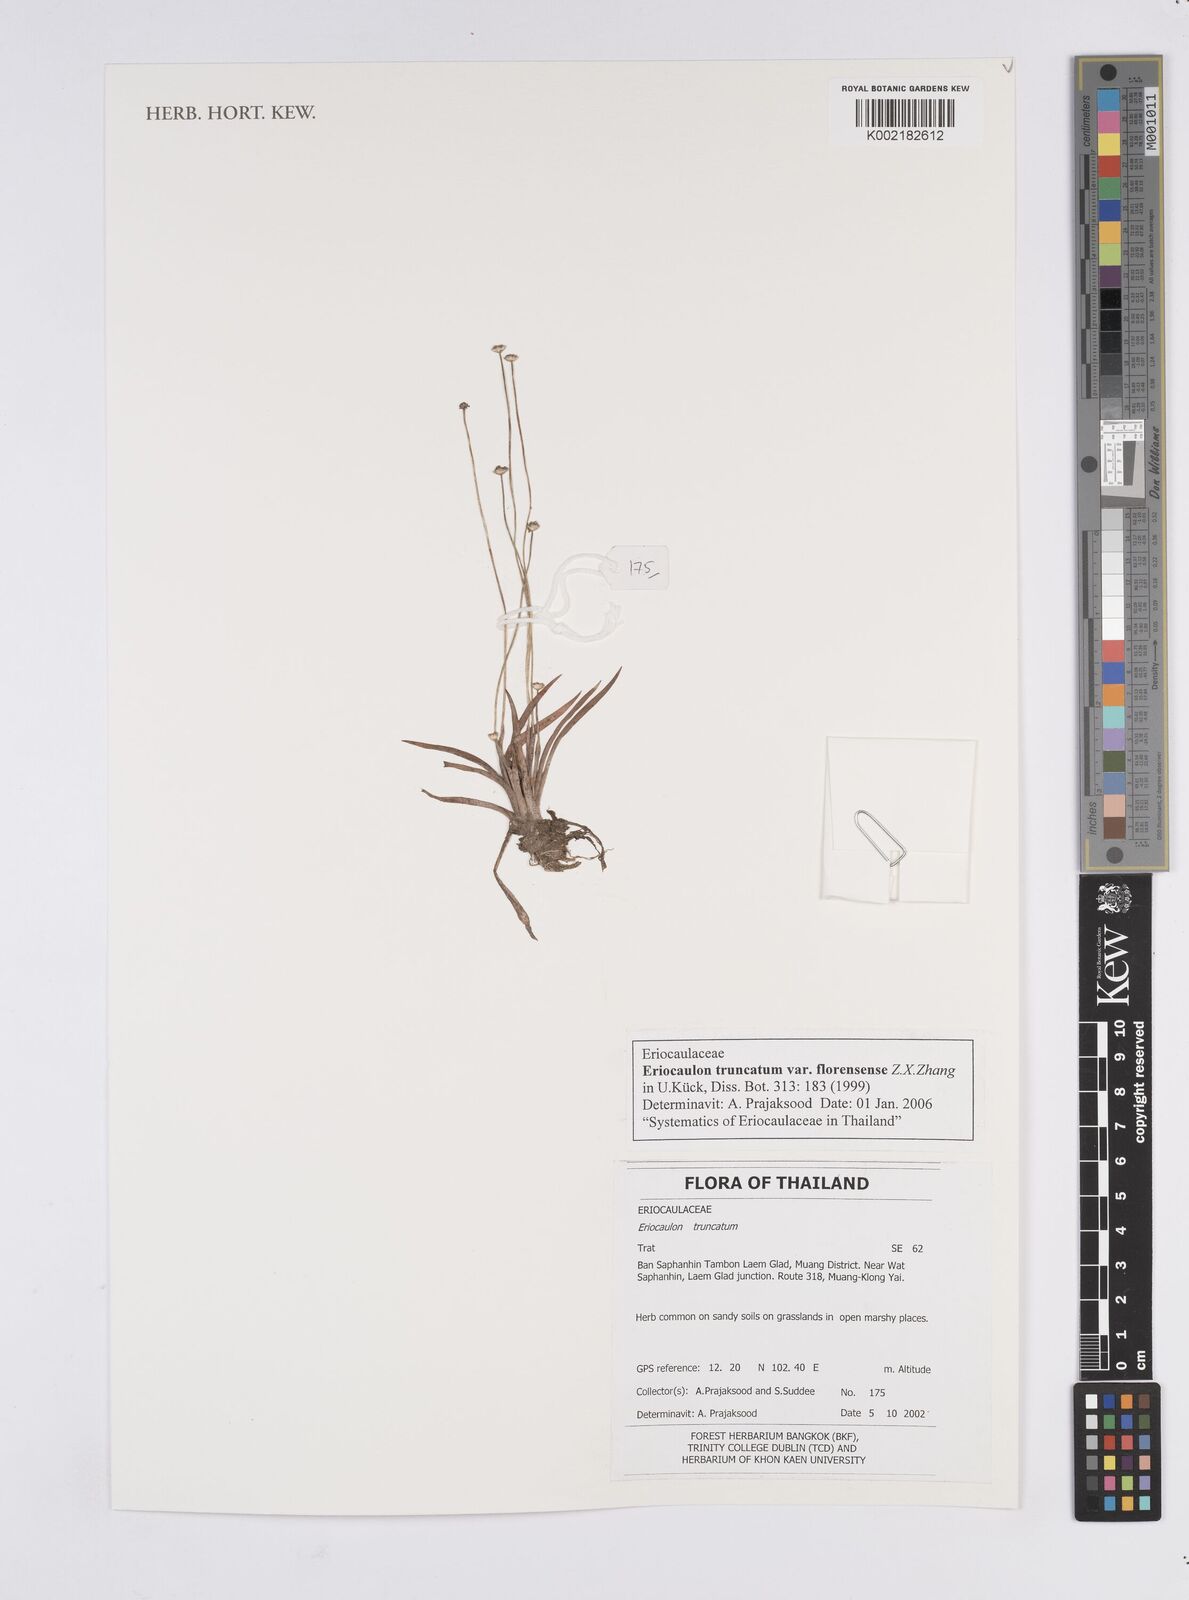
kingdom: Plantae
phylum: Tracheophyta
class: Liliopsida
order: Poales
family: Eriocaulaceae
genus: Eriocaulon
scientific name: Eriocaulon truncatum
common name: Short pipe-wort
